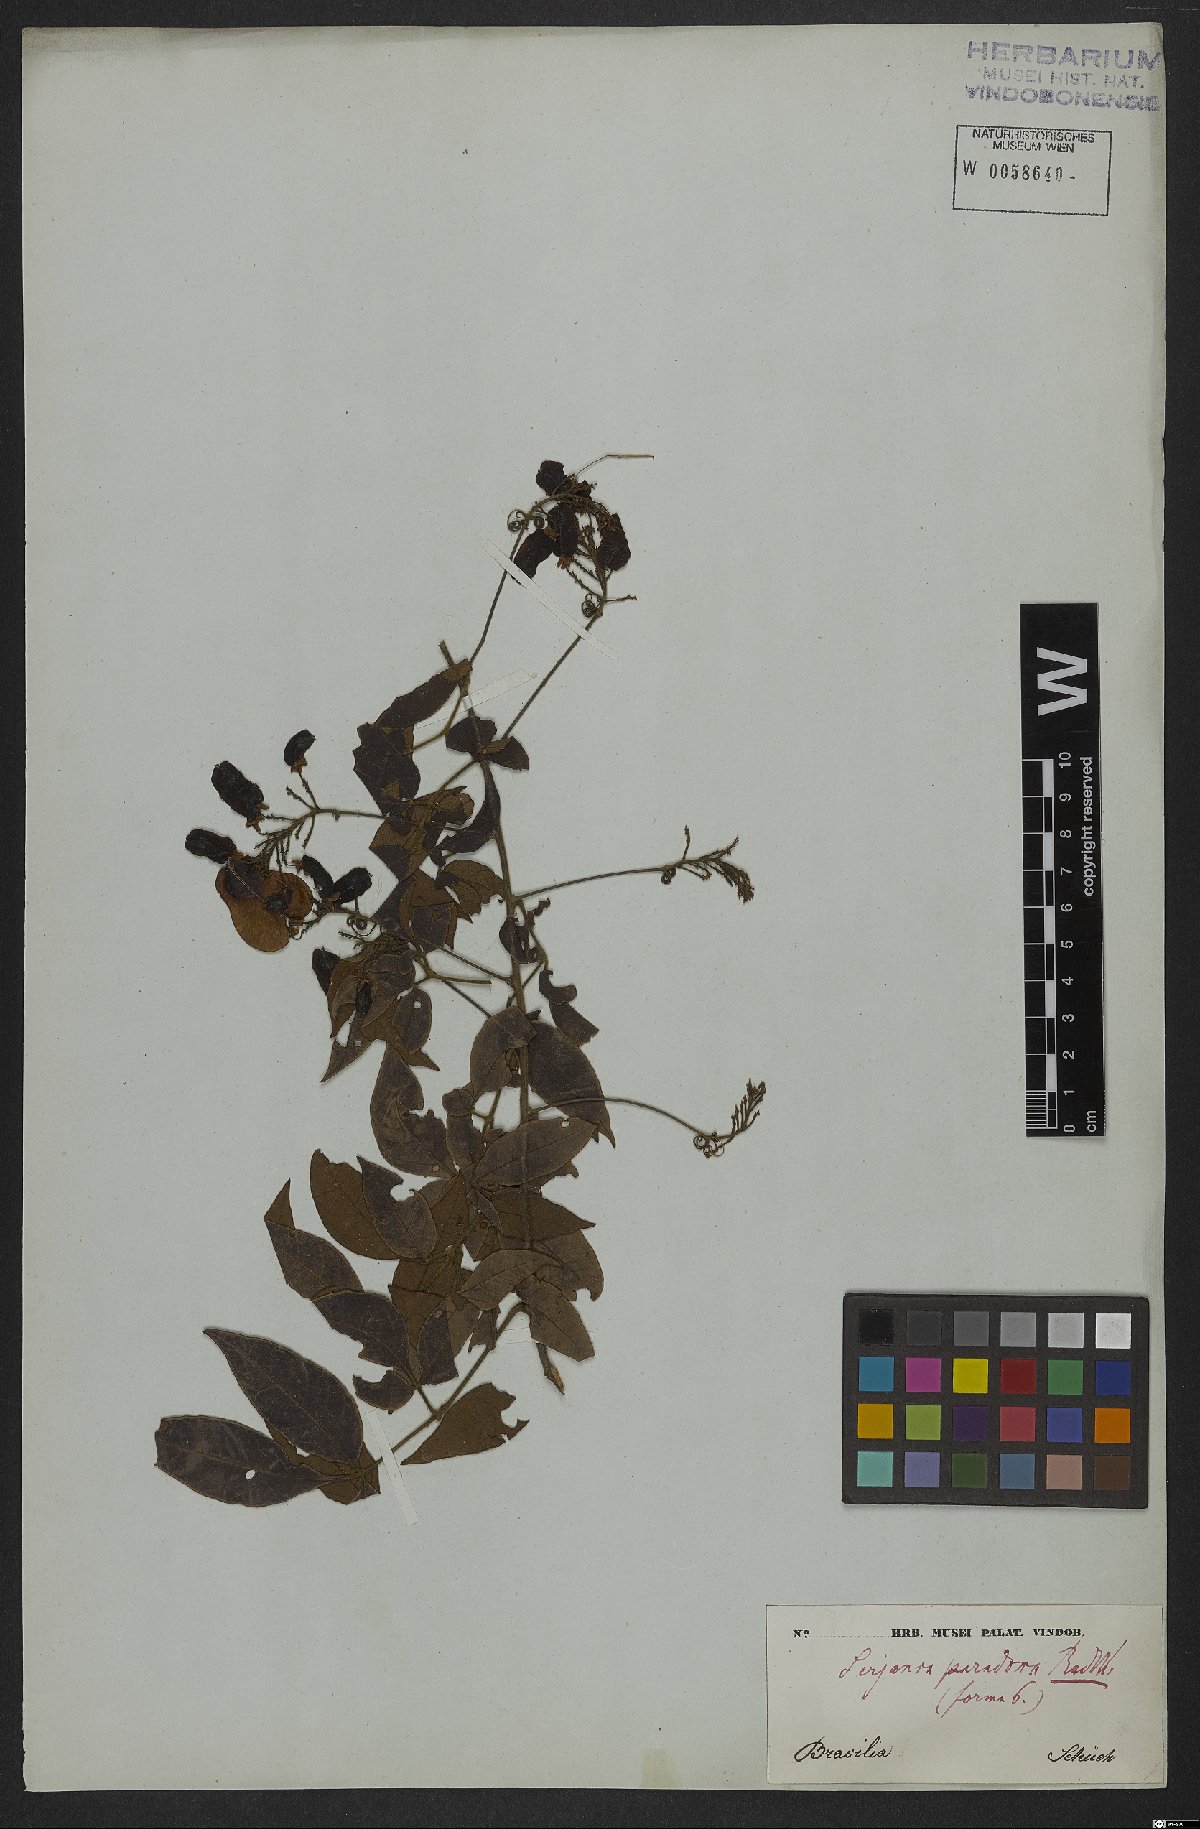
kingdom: Plantae
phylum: Tracheophyta
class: Magnoliopsida
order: Sapindales
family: Sapindaceae
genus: Serjania
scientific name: Serjania paradoxa
